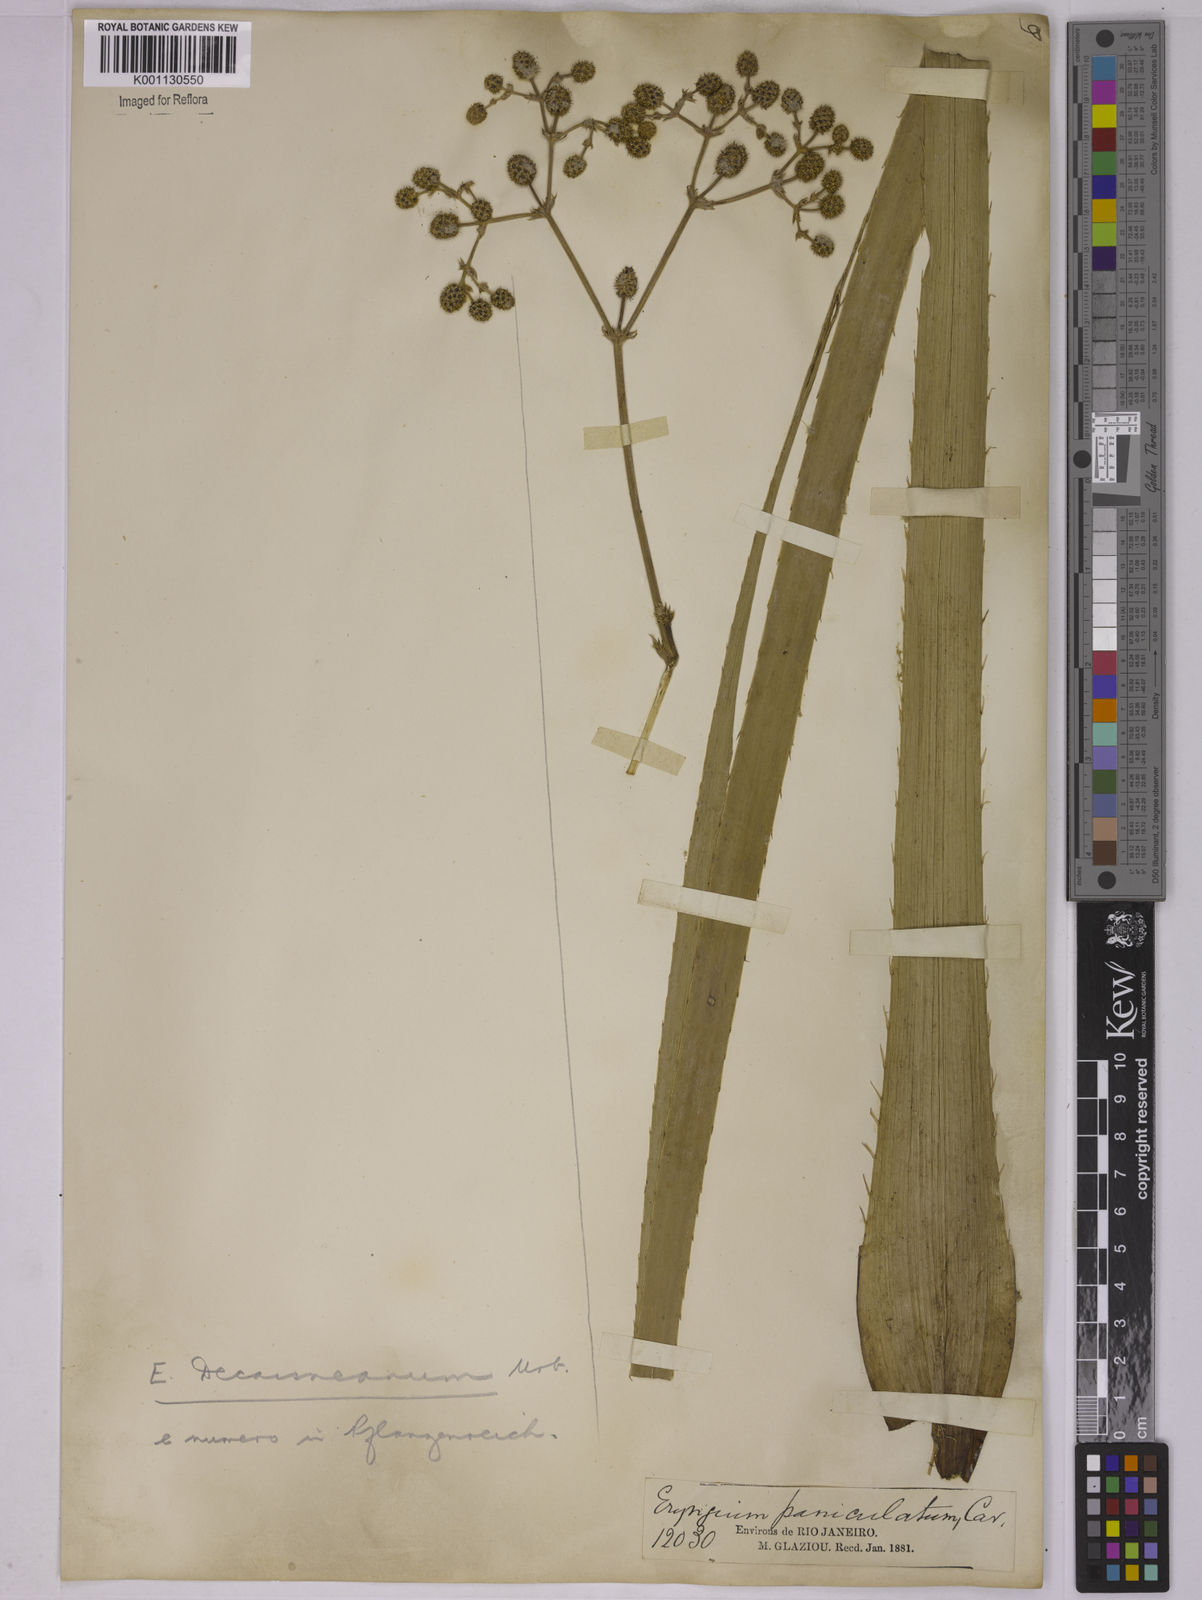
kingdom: Plantae
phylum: Tracheophyta
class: Magnoliopsida
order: Apiales
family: Apiaceae
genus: Eryngium
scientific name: Eryngium pandanifolium
